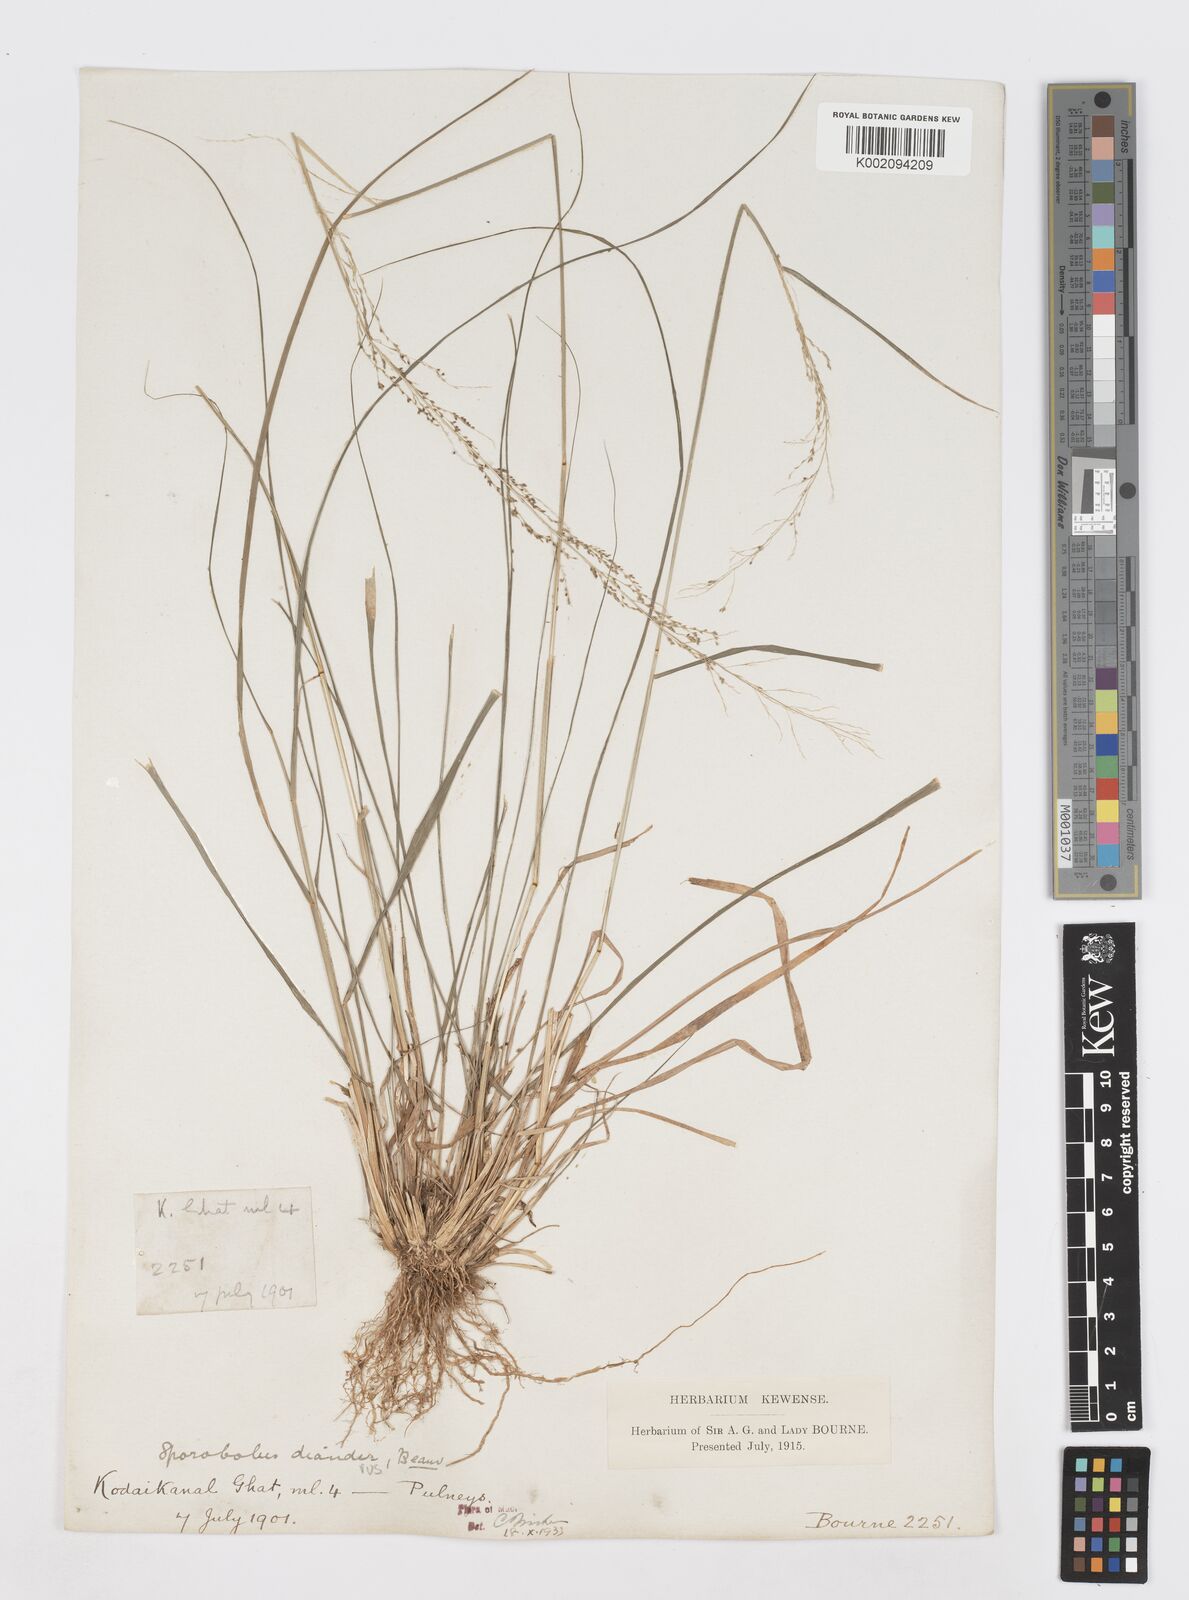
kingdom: Plantae
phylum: Tracheophyta
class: Liliopsida
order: Poales
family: Poaceae
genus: Sporobolus
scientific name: Sporobolus diandrus
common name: Tussock dropseed
